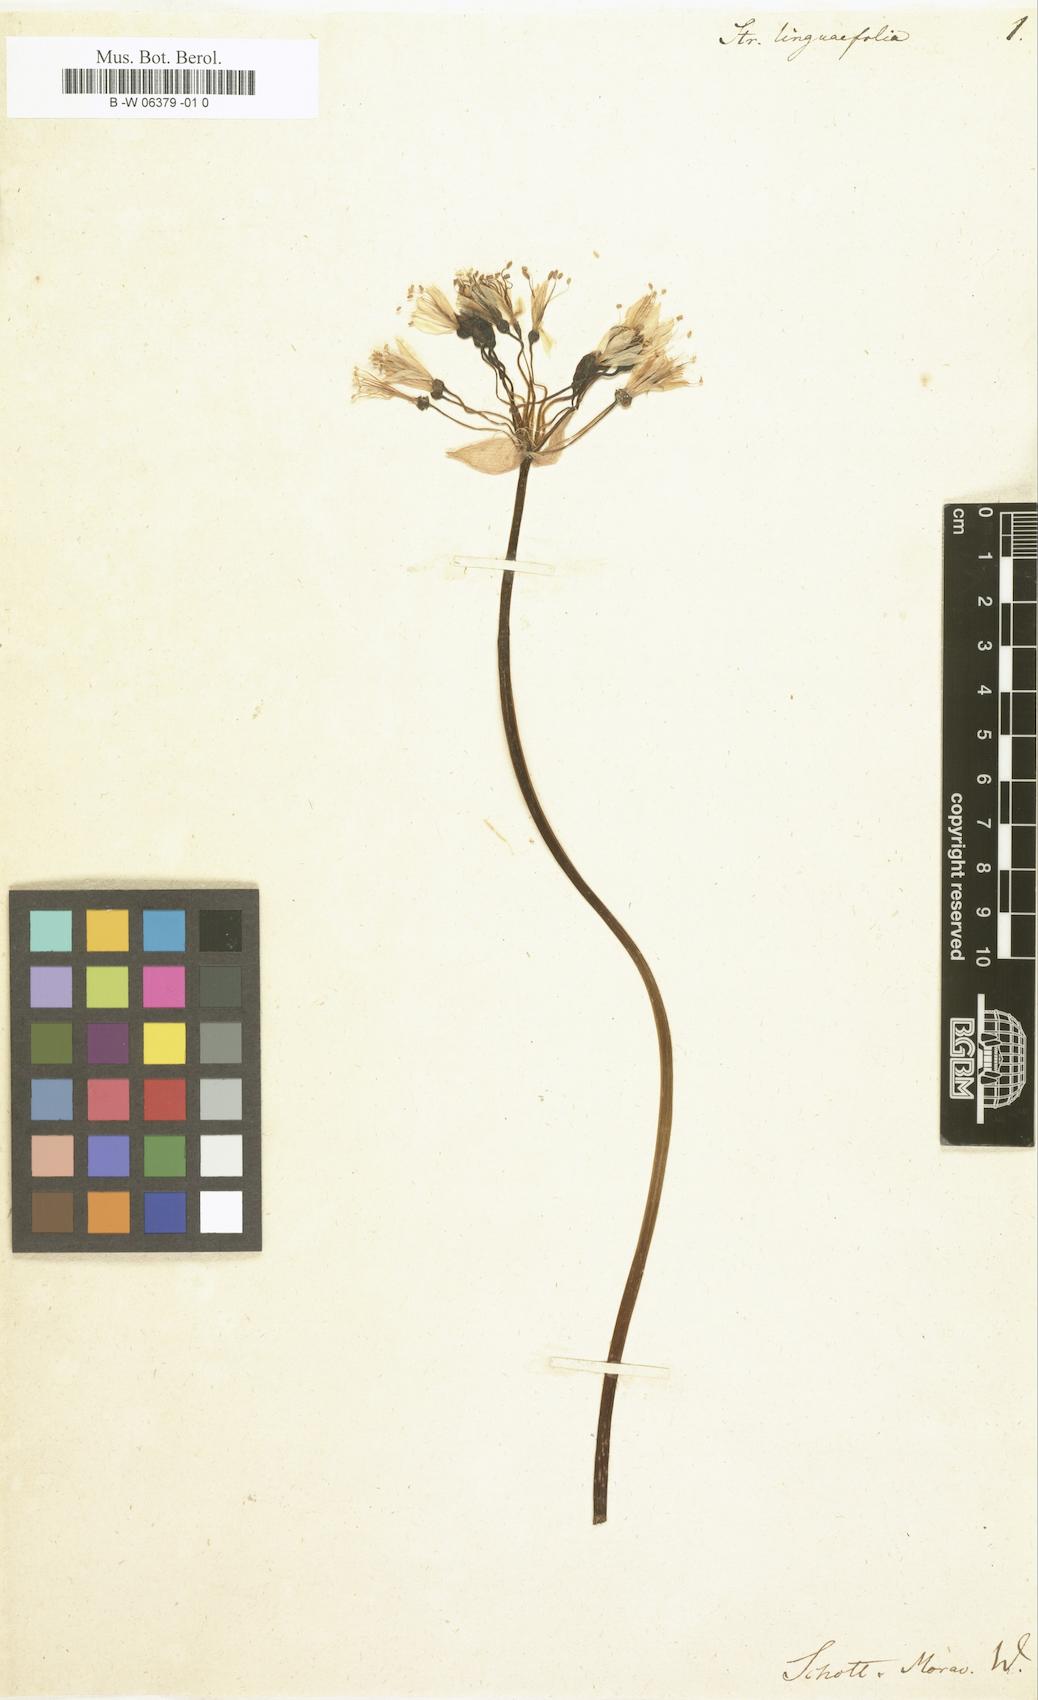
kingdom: Plantae
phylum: Tracheophyta
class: Liliopsida
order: Asparagales
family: Amaryllidaceae
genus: Strumaria
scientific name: Strumaria truncata
